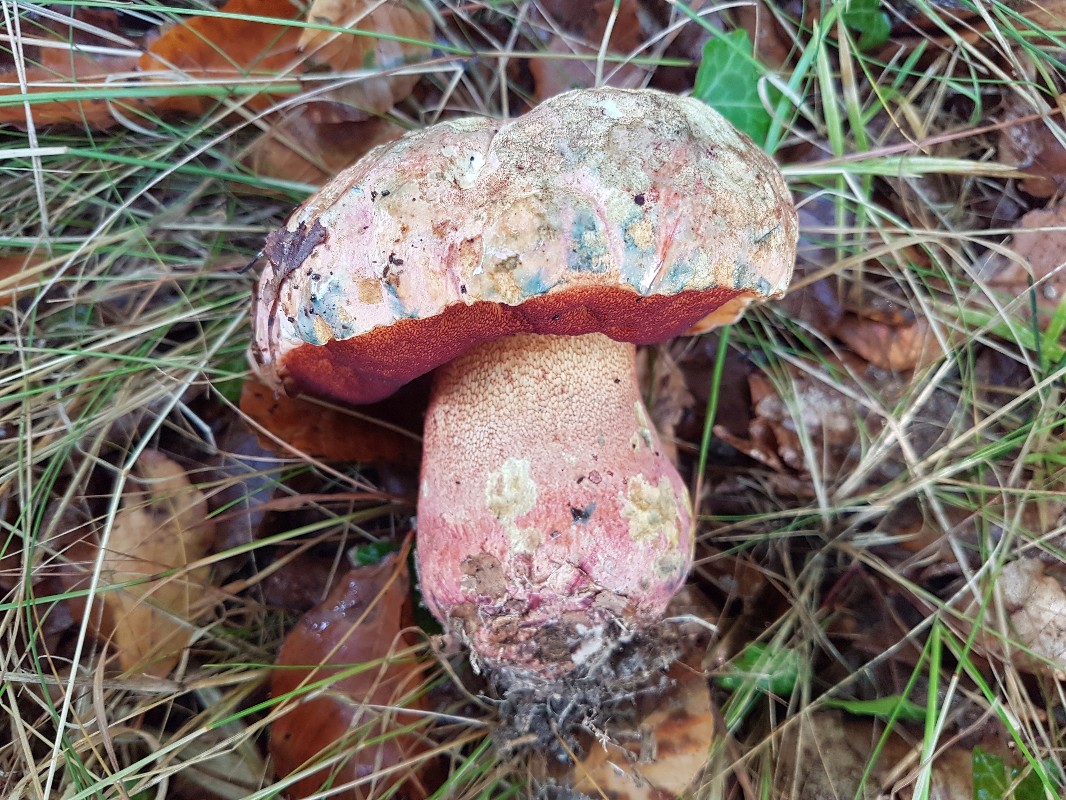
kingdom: Fungi
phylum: Basidiomycota
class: Agaricomycetes
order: Boletales
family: Boletaceae
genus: Imperator
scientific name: Imperator rhodopurpureus
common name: purpur-rørhat
